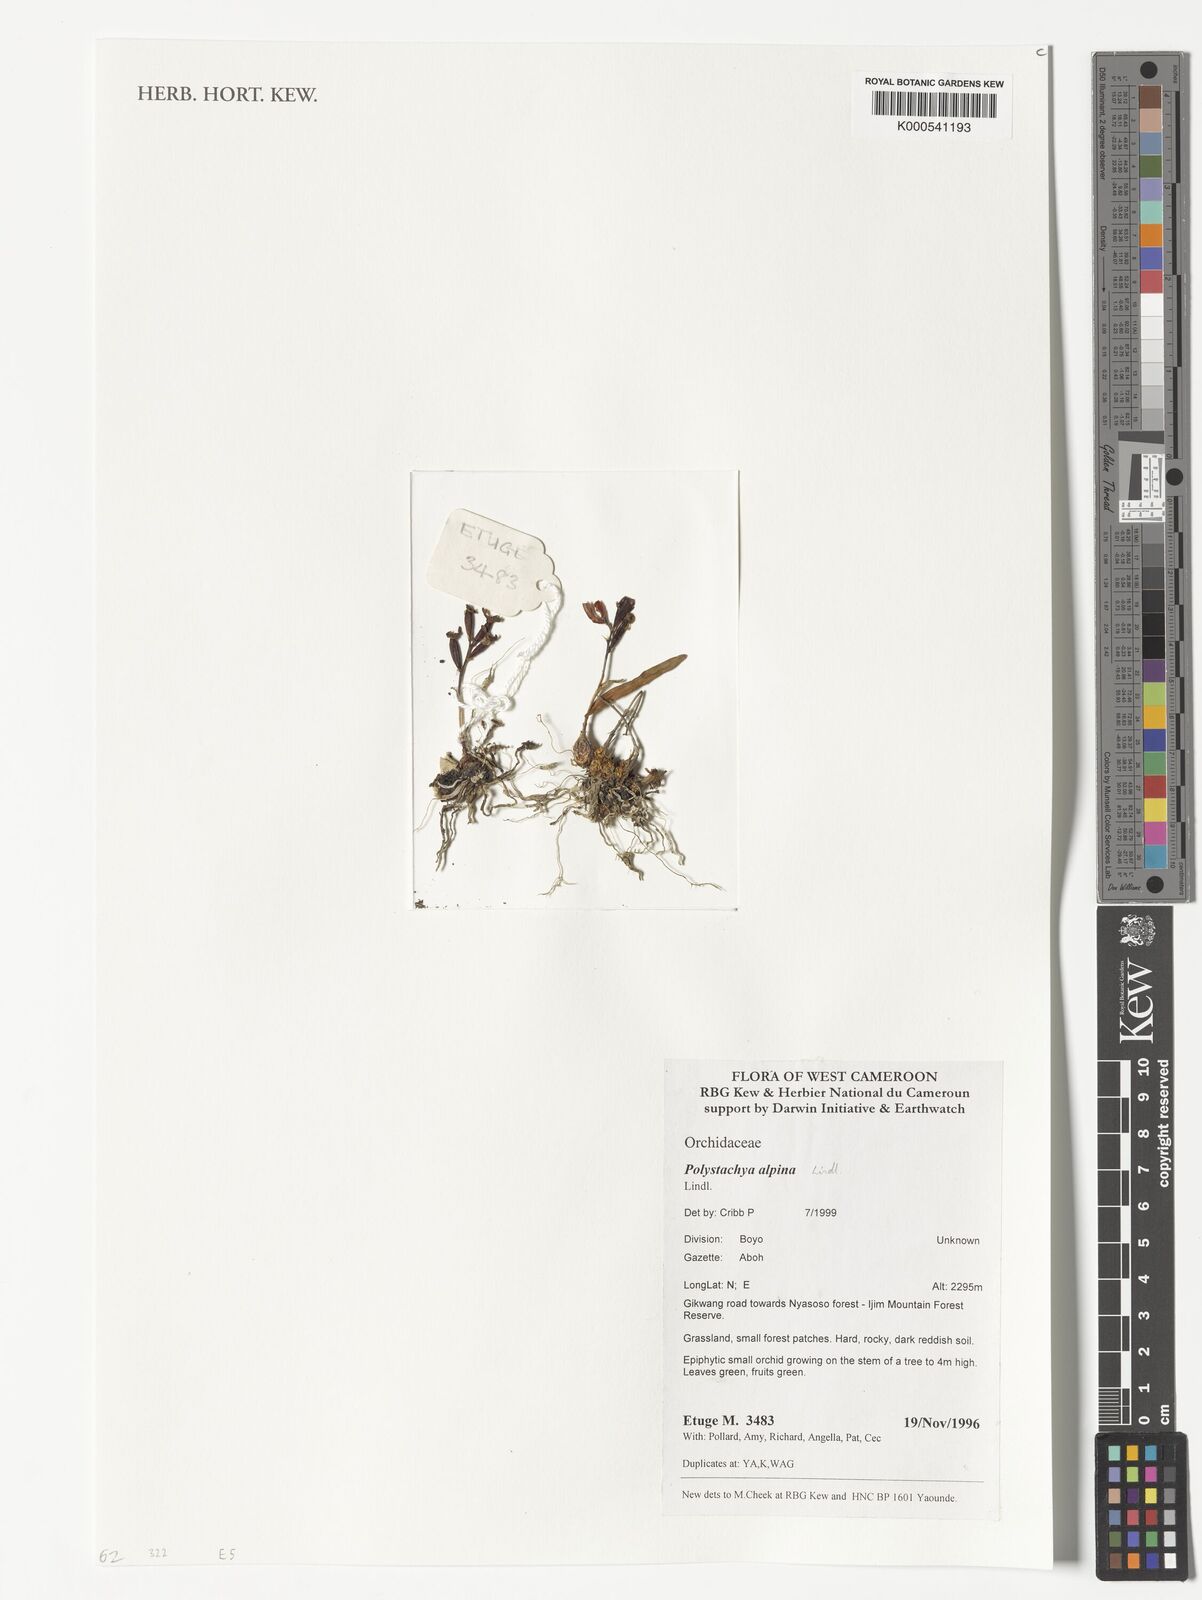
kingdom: Plantae
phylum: Tracheophyta
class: Liliopsida
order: Asparagales
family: Orchidaceae
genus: Polystachya
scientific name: Polystachya alpina
